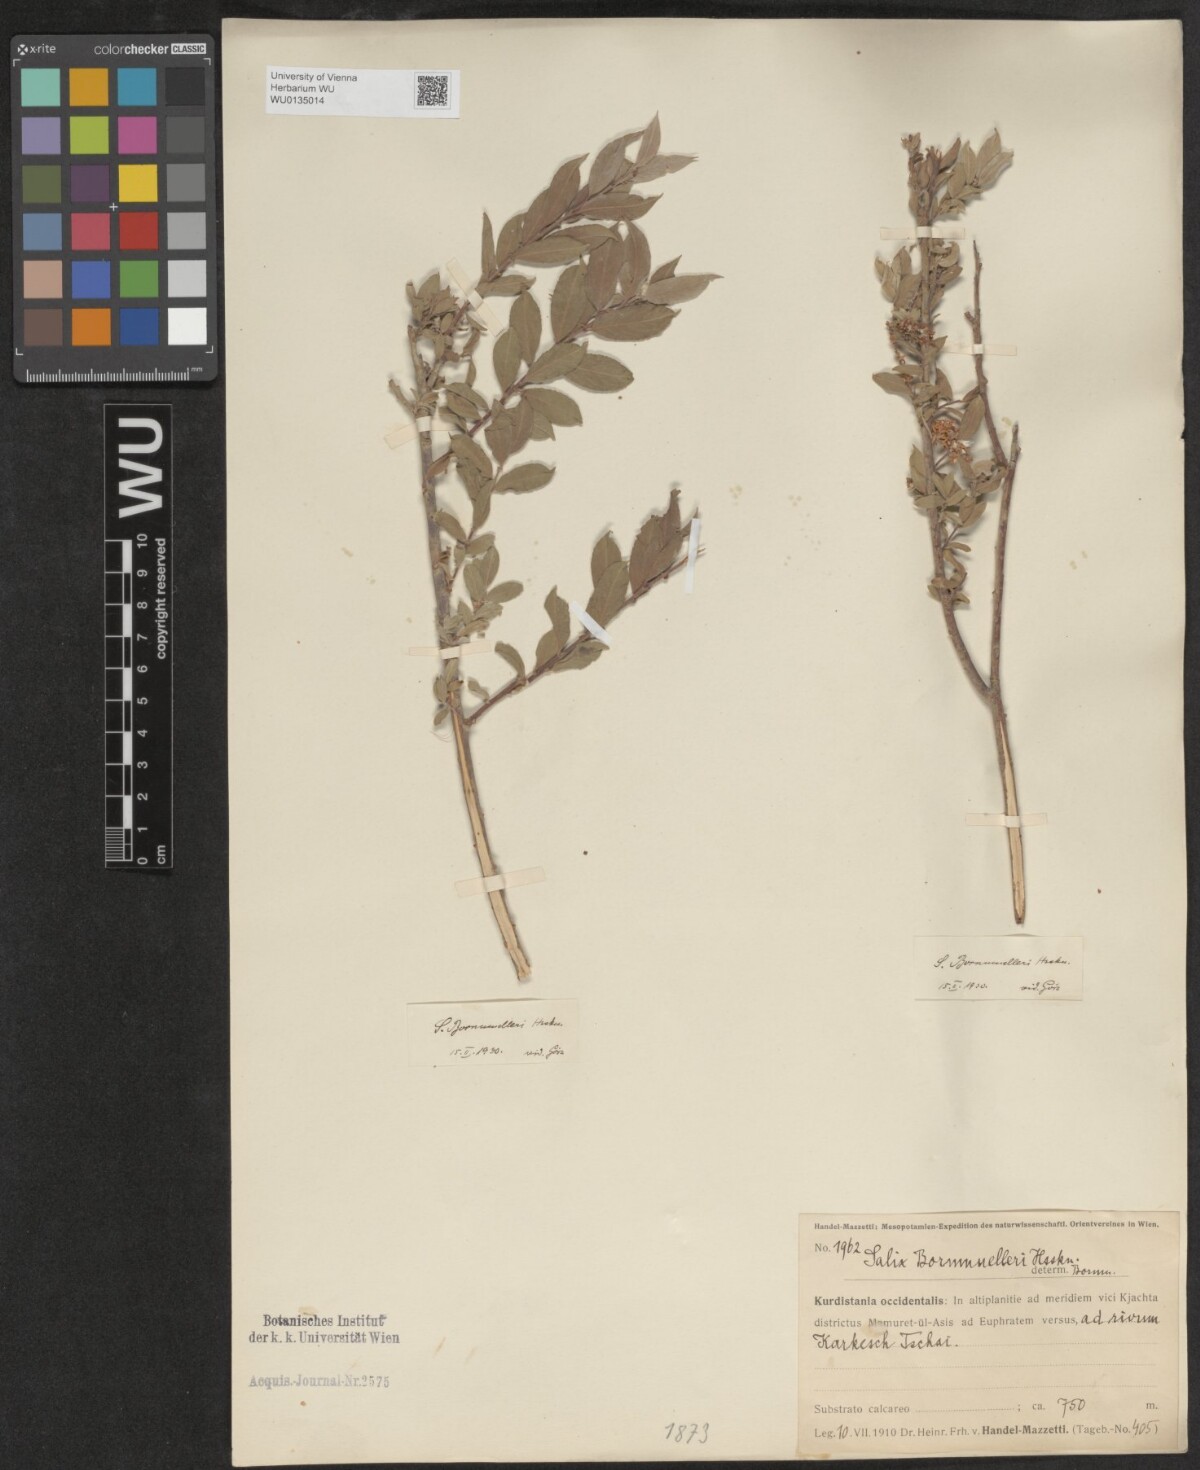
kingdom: Plantae
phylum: Tracheophyta
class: Magnoliopsida
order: Malpighiales
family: Salicaceae
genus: Salix
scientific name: Salix triandra
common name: Almond willow
